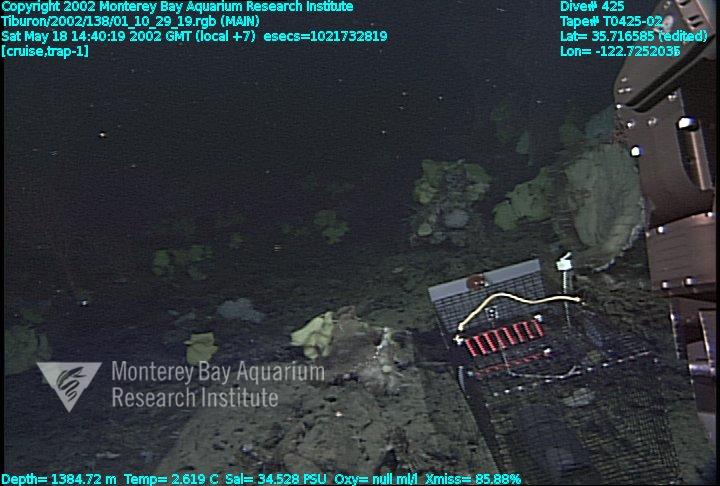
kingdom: Animalia
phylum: Porifera
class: Hexactinellida
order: Lyssacinosida
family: Rossellidae
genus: Staurocalyptus
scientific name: Staurocalyptus
